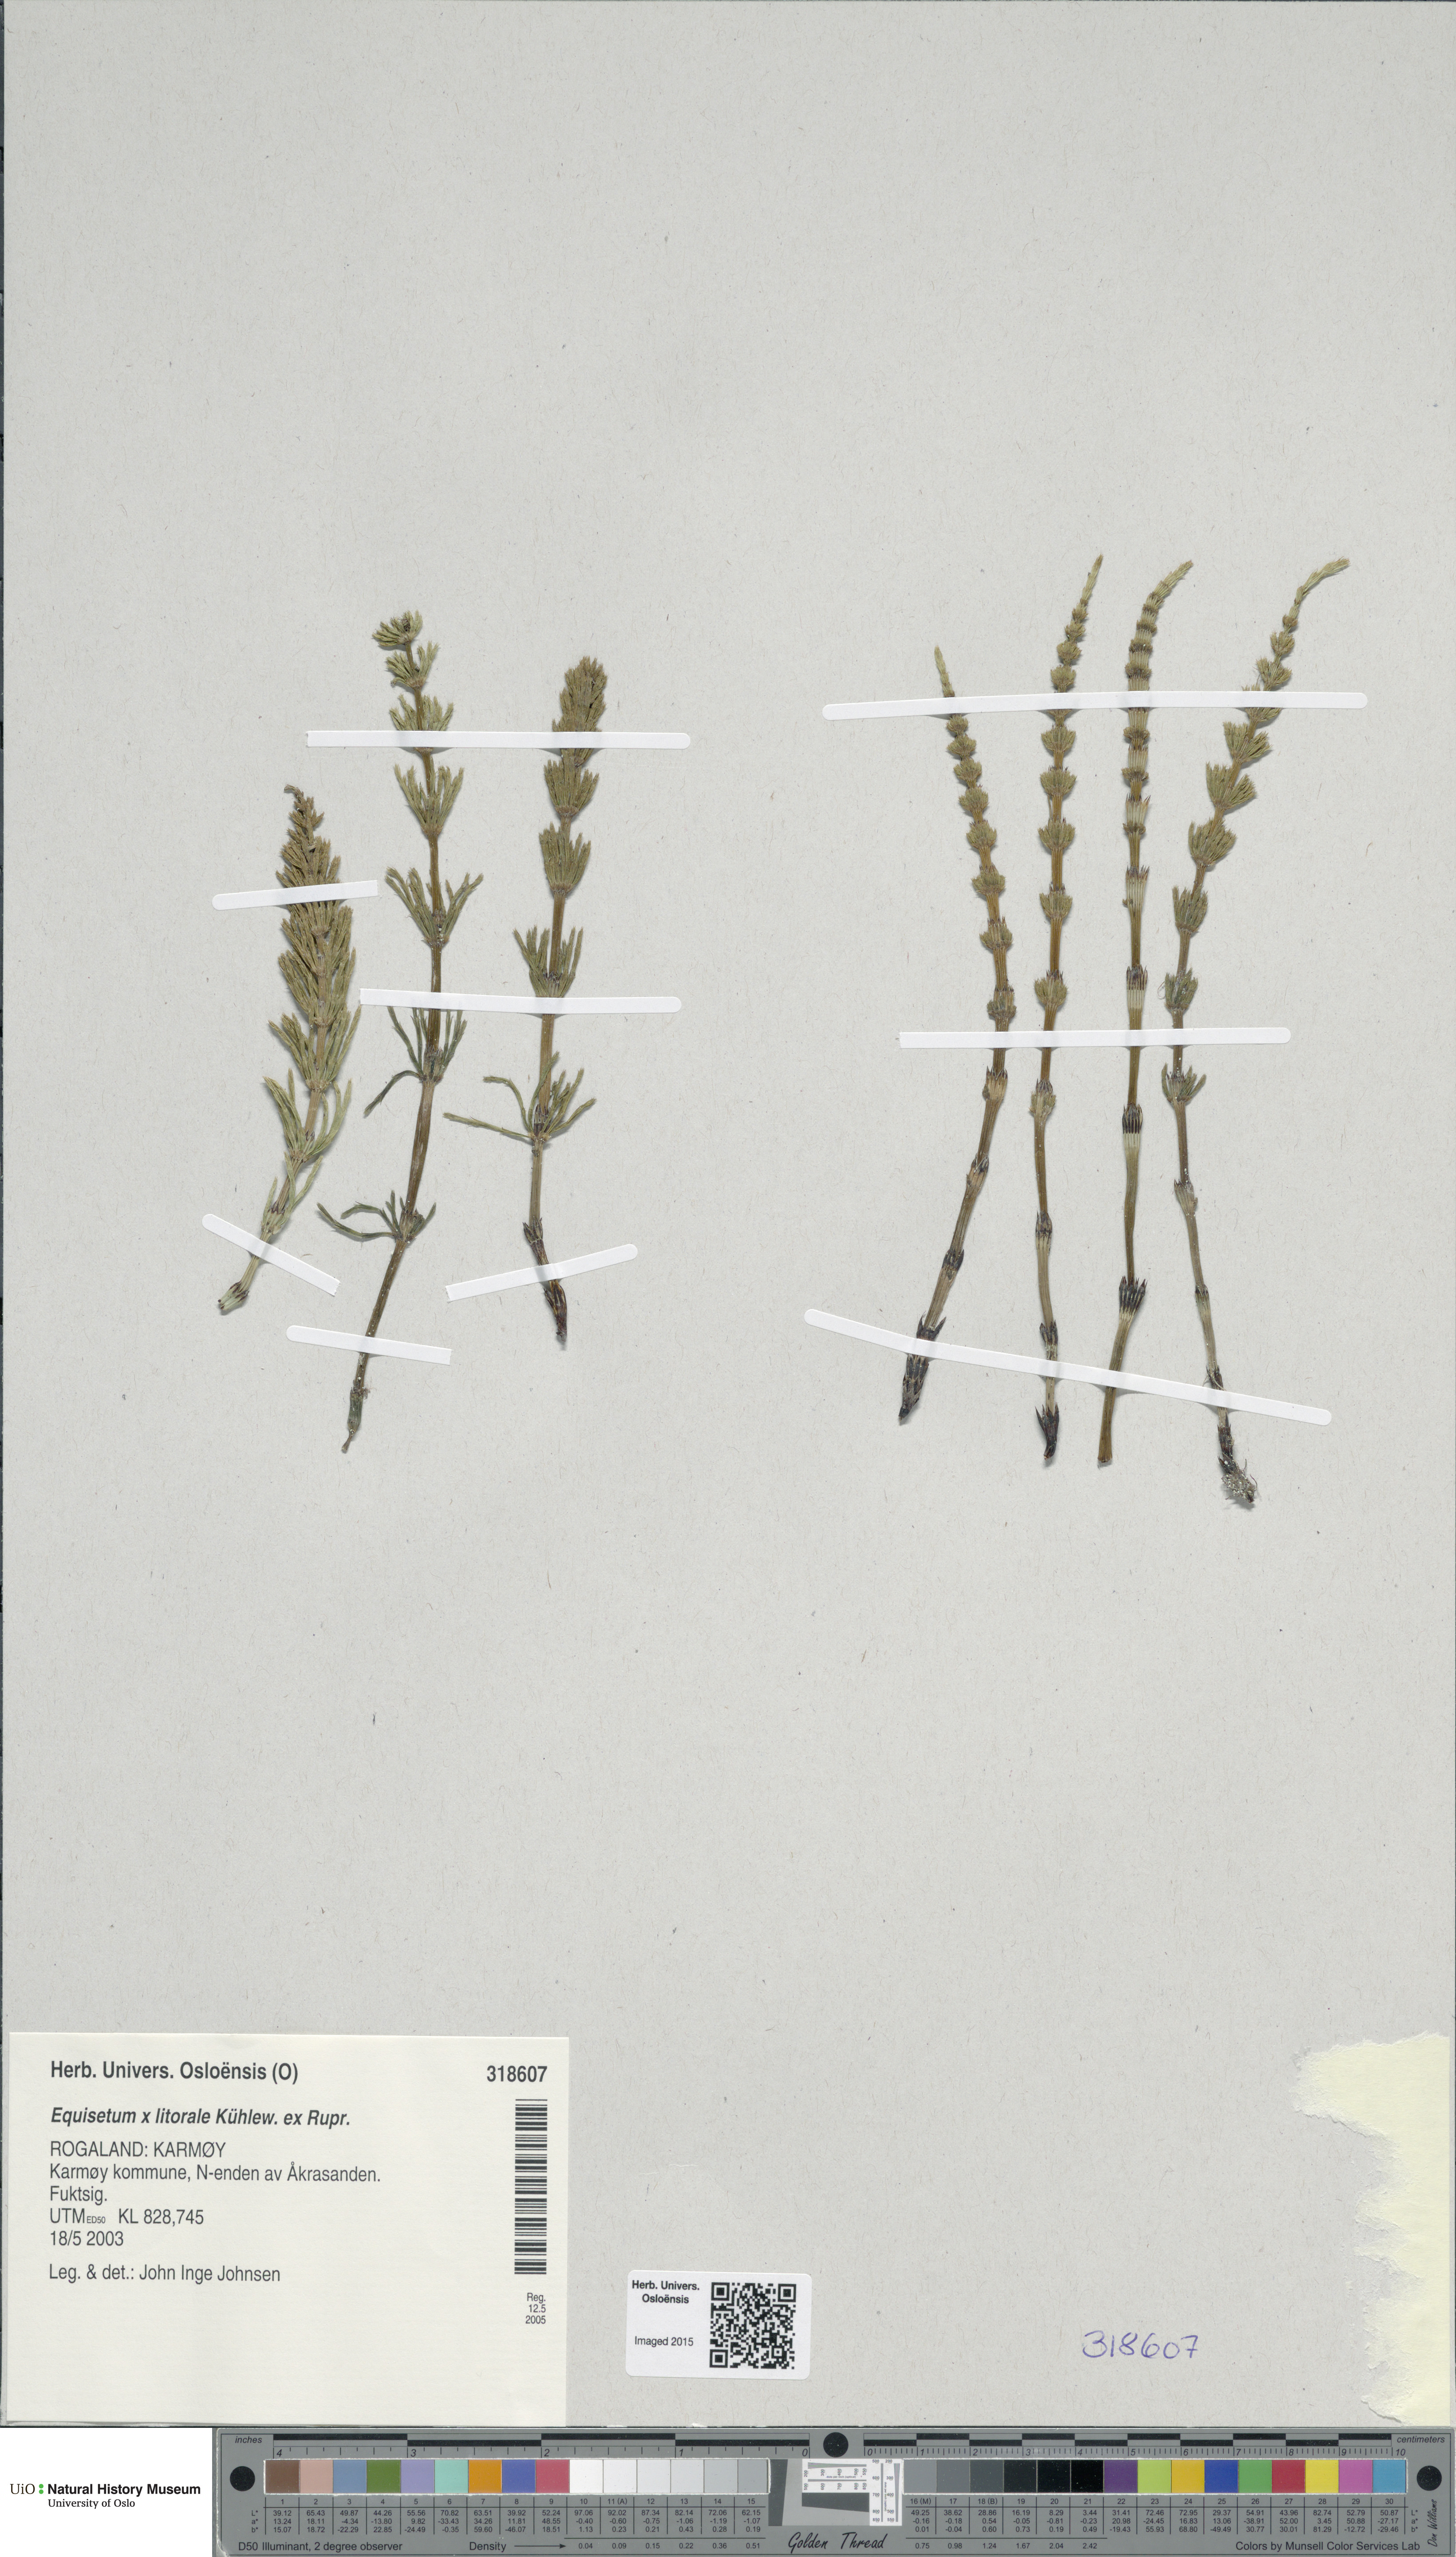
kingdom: Plantae
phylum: Tracheophyta
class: Polypodiopsida
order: Equisetales
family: Equisetaceae
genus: Equisetum
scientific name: Equisetum litorale
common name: Littoral horsetail
